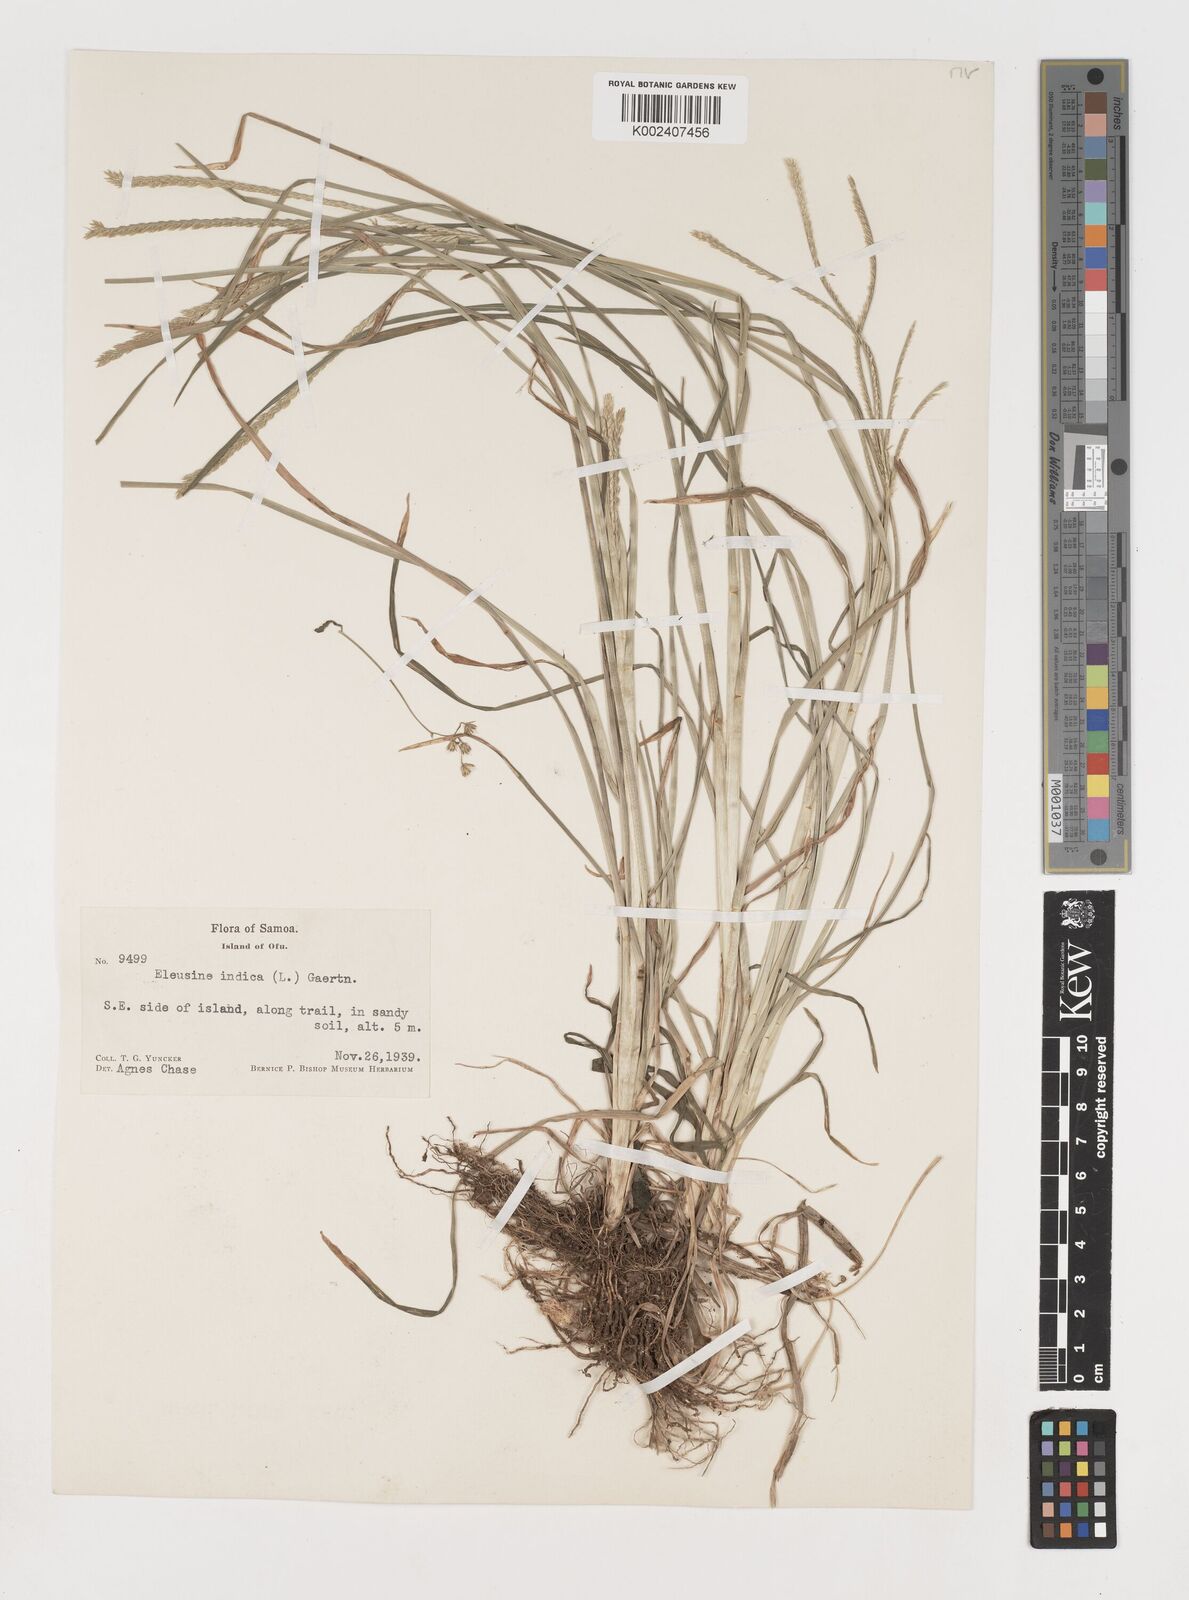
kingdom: Plantae
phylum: Tracheophyta
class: Liliopsida
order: Poales
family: Poaceae
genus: Eleusine
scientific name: Eleusine indica
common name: Yard-grass
